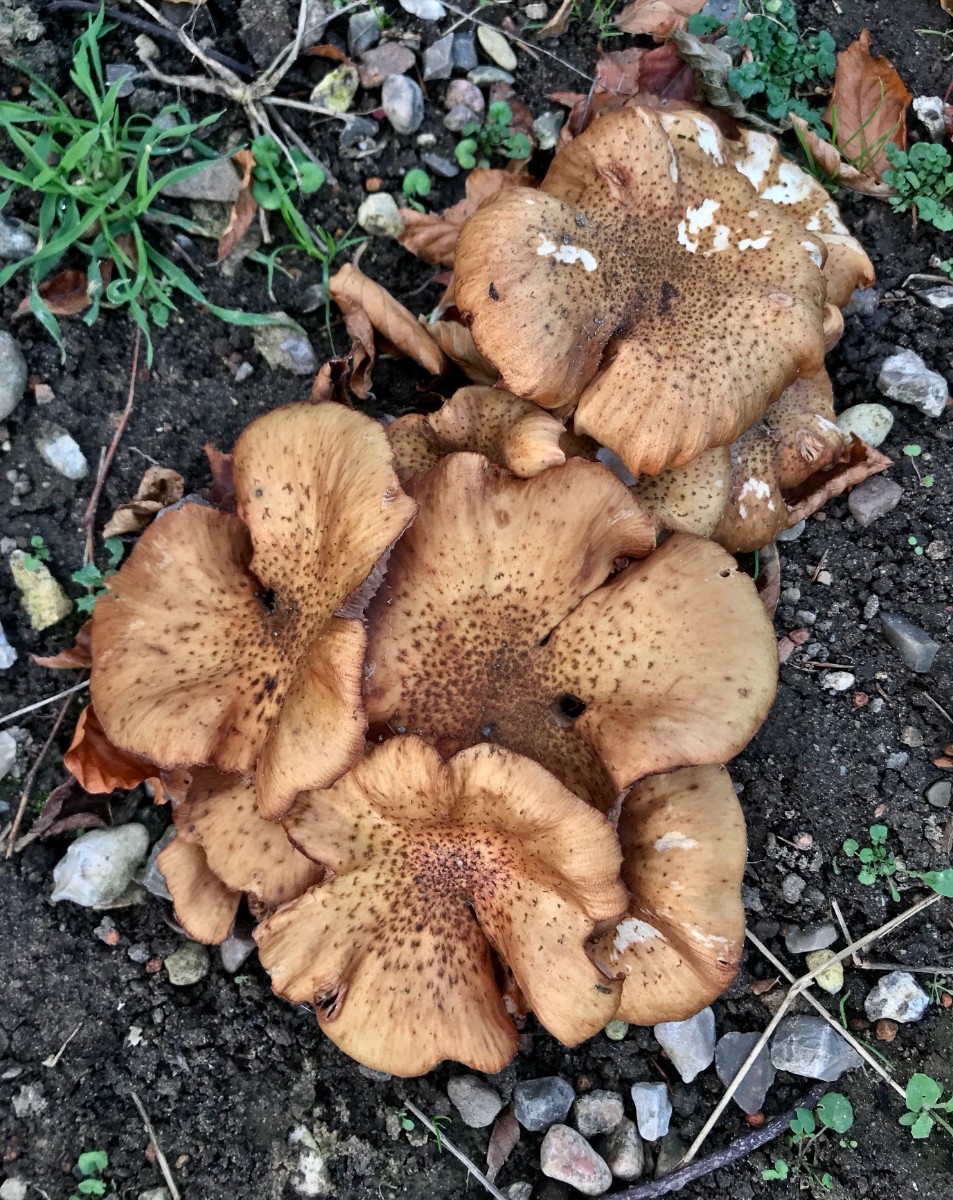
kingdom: Fungi
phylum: Basidiomycota
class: Agaricomycetes
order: Agaricales
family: Physalacriaceae
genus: Armillaria
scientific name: Armillaria lutea
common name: køllestokket honningsvamp
